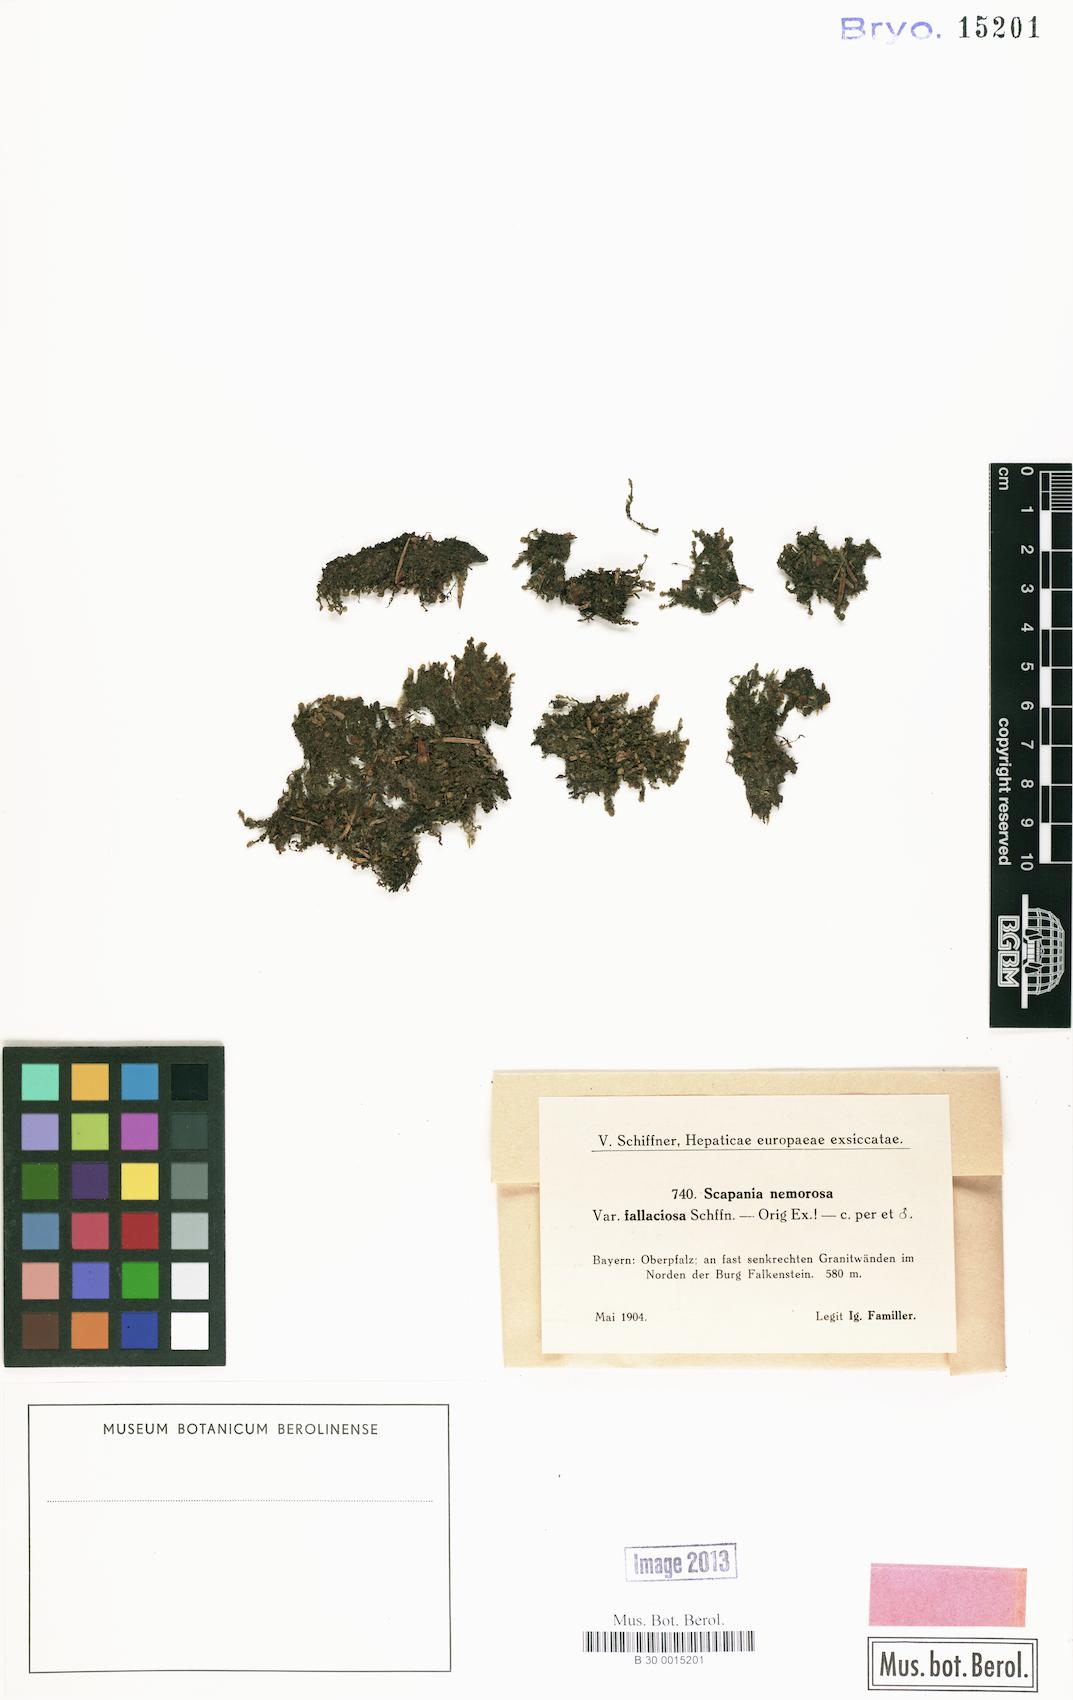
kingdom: Plantae
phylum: Marchantiophyta
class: Jungermanniopsida
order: Jungermanniales
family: Scapaniaceae
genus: Scapania
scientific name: Scapania nemorea
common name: Grove earwort
